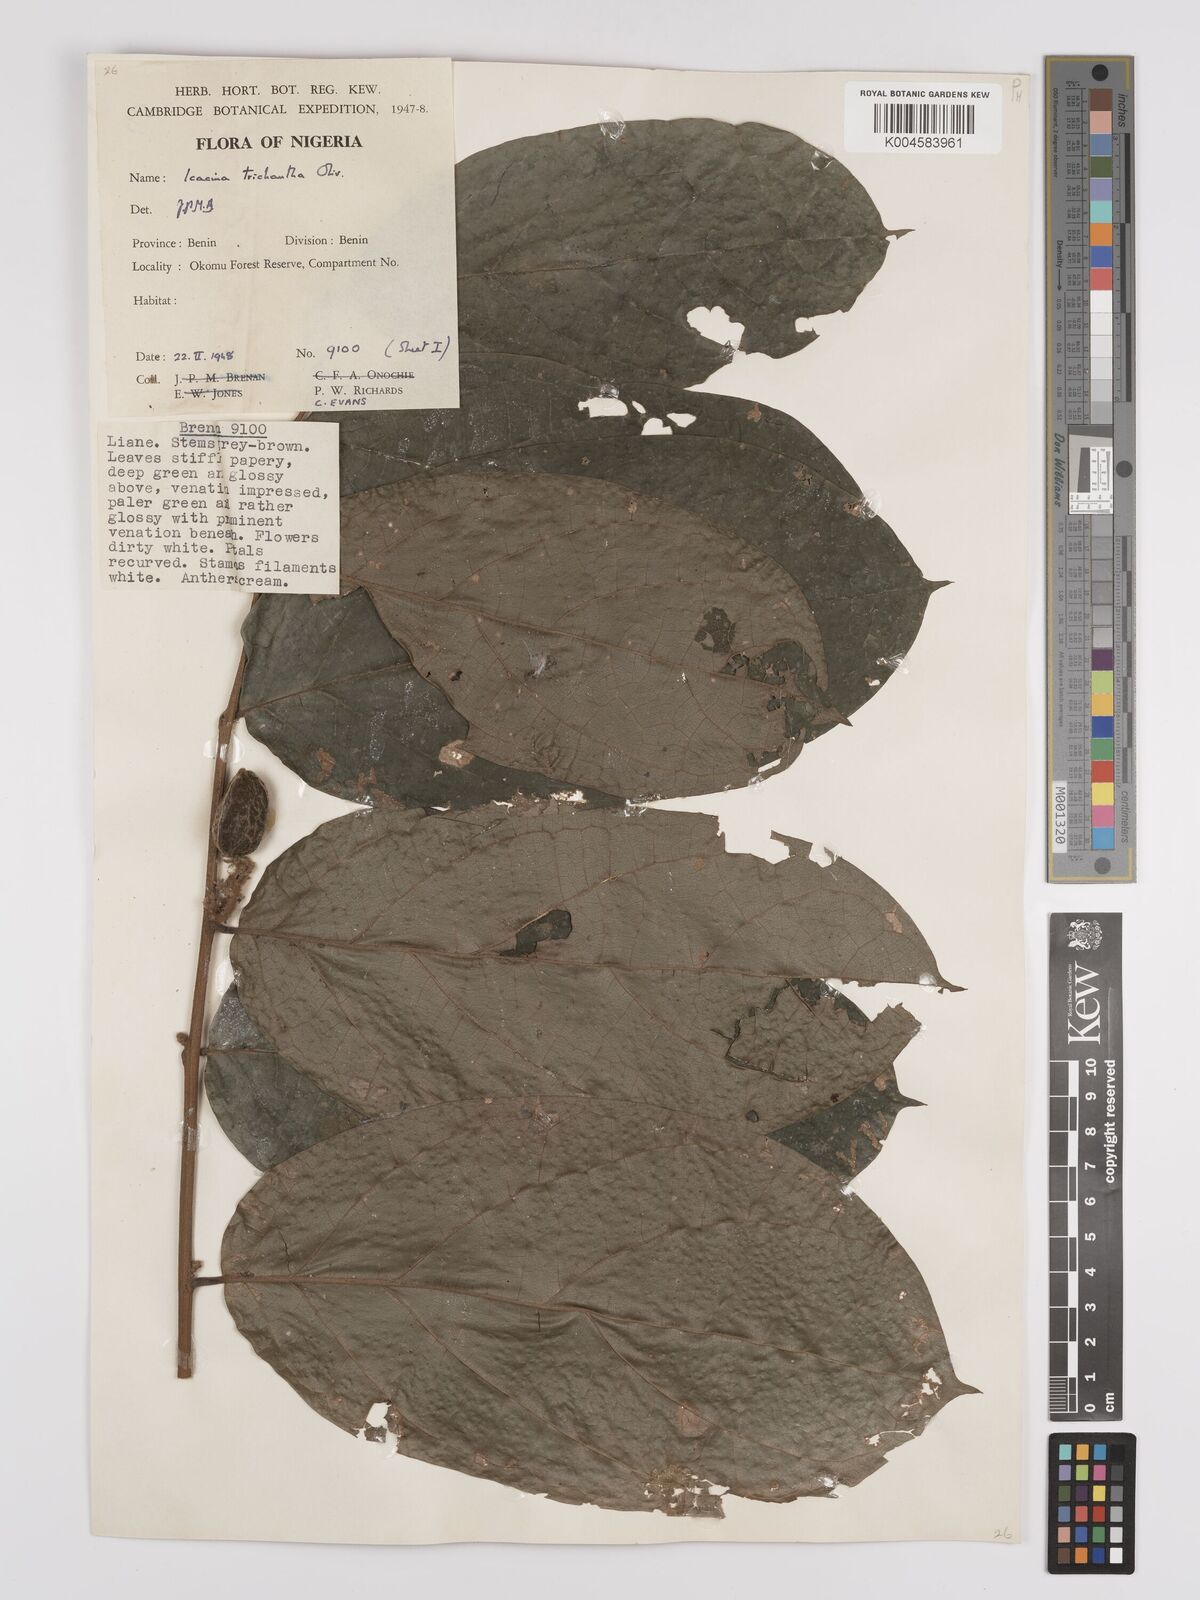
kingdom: Plantae
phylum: Tracheophyta
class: Magnoliopsida
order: Icacinales
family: Icacinaceae
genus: Icacina
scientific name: Icacina trichantha
